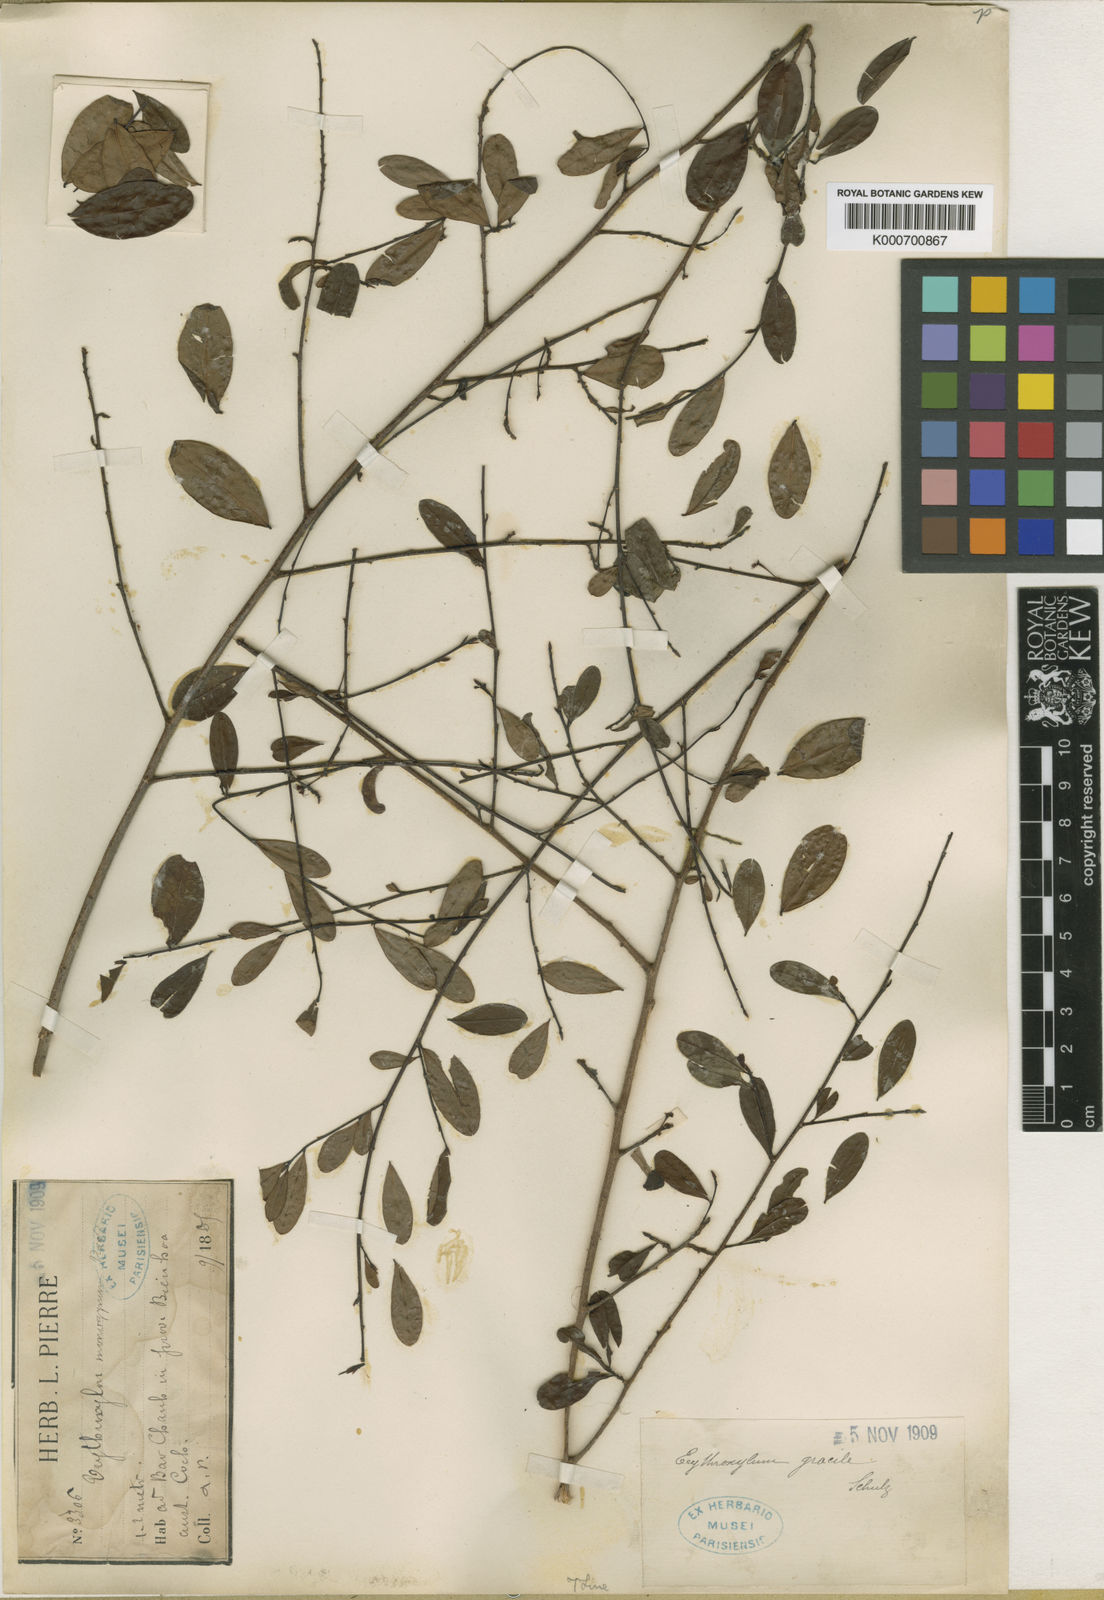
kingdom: Plantae
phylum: Tracheophyta
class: Magnoliopsida
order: Malpighiales
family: Erythroxylaceae
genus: Erythroxylum
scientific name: Erythroxylum gracile
